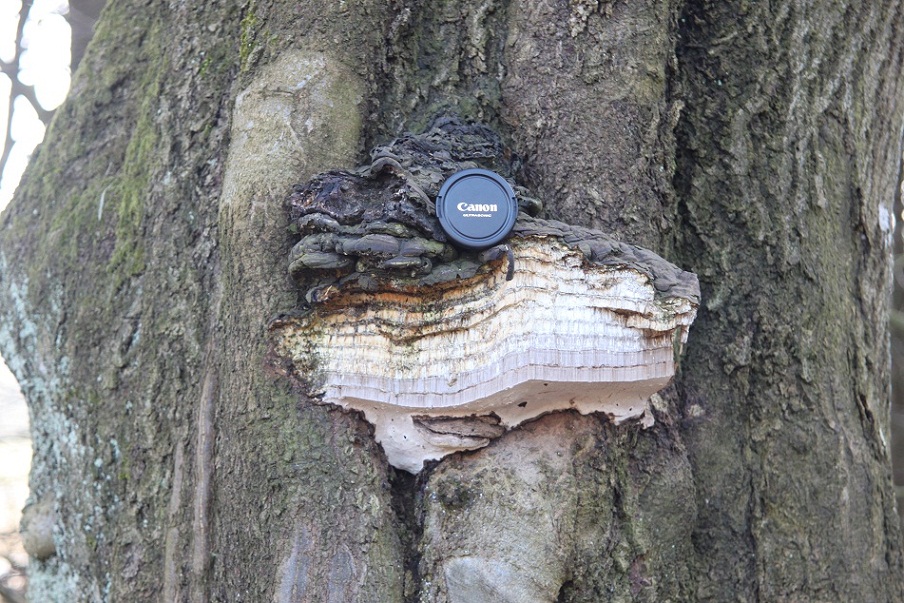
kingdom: Fungi
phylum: Basidiomycota
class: Agaricomycetes
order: Polyporales
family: Polyporaceae
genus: Fomes
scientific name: Fomes fomentarius
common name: tøndersvamp
